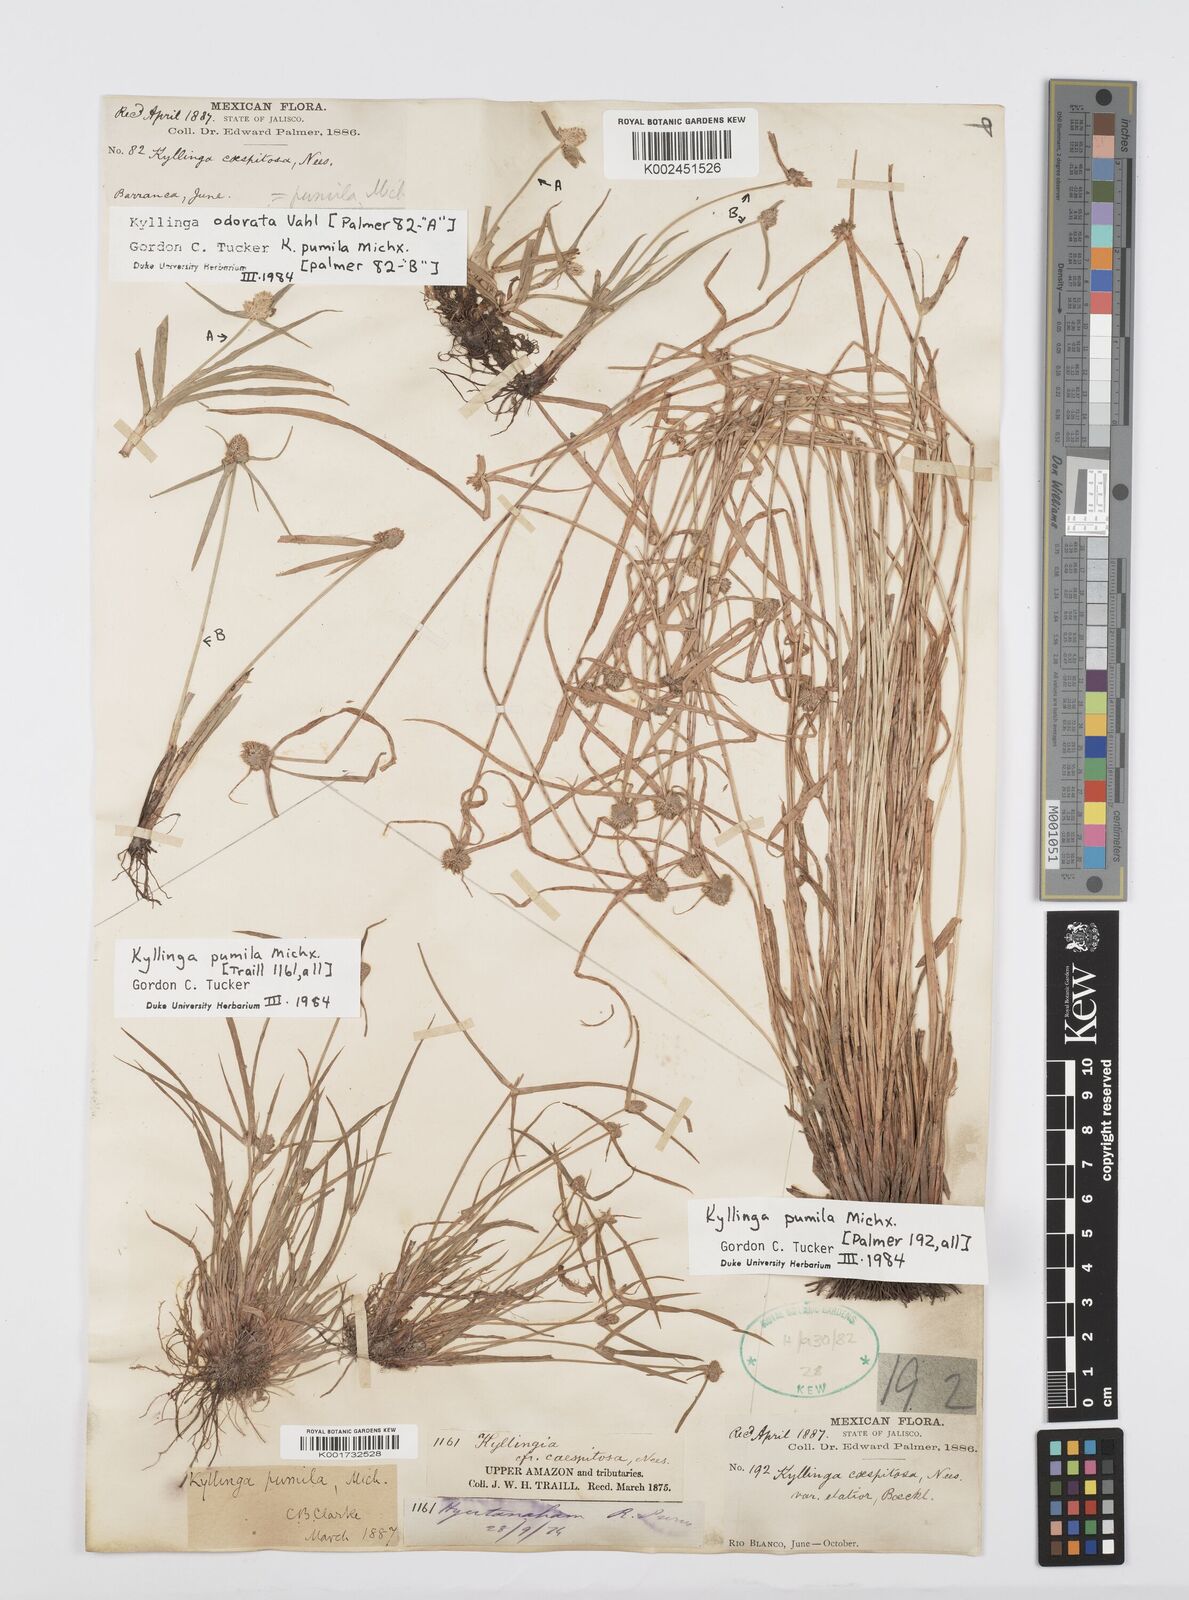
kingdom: Plantae
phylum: Tracheophyta
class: Liliopsida
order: Poales
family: Cyperaceae
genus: Cyperus
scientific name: Cyperus hortensis
